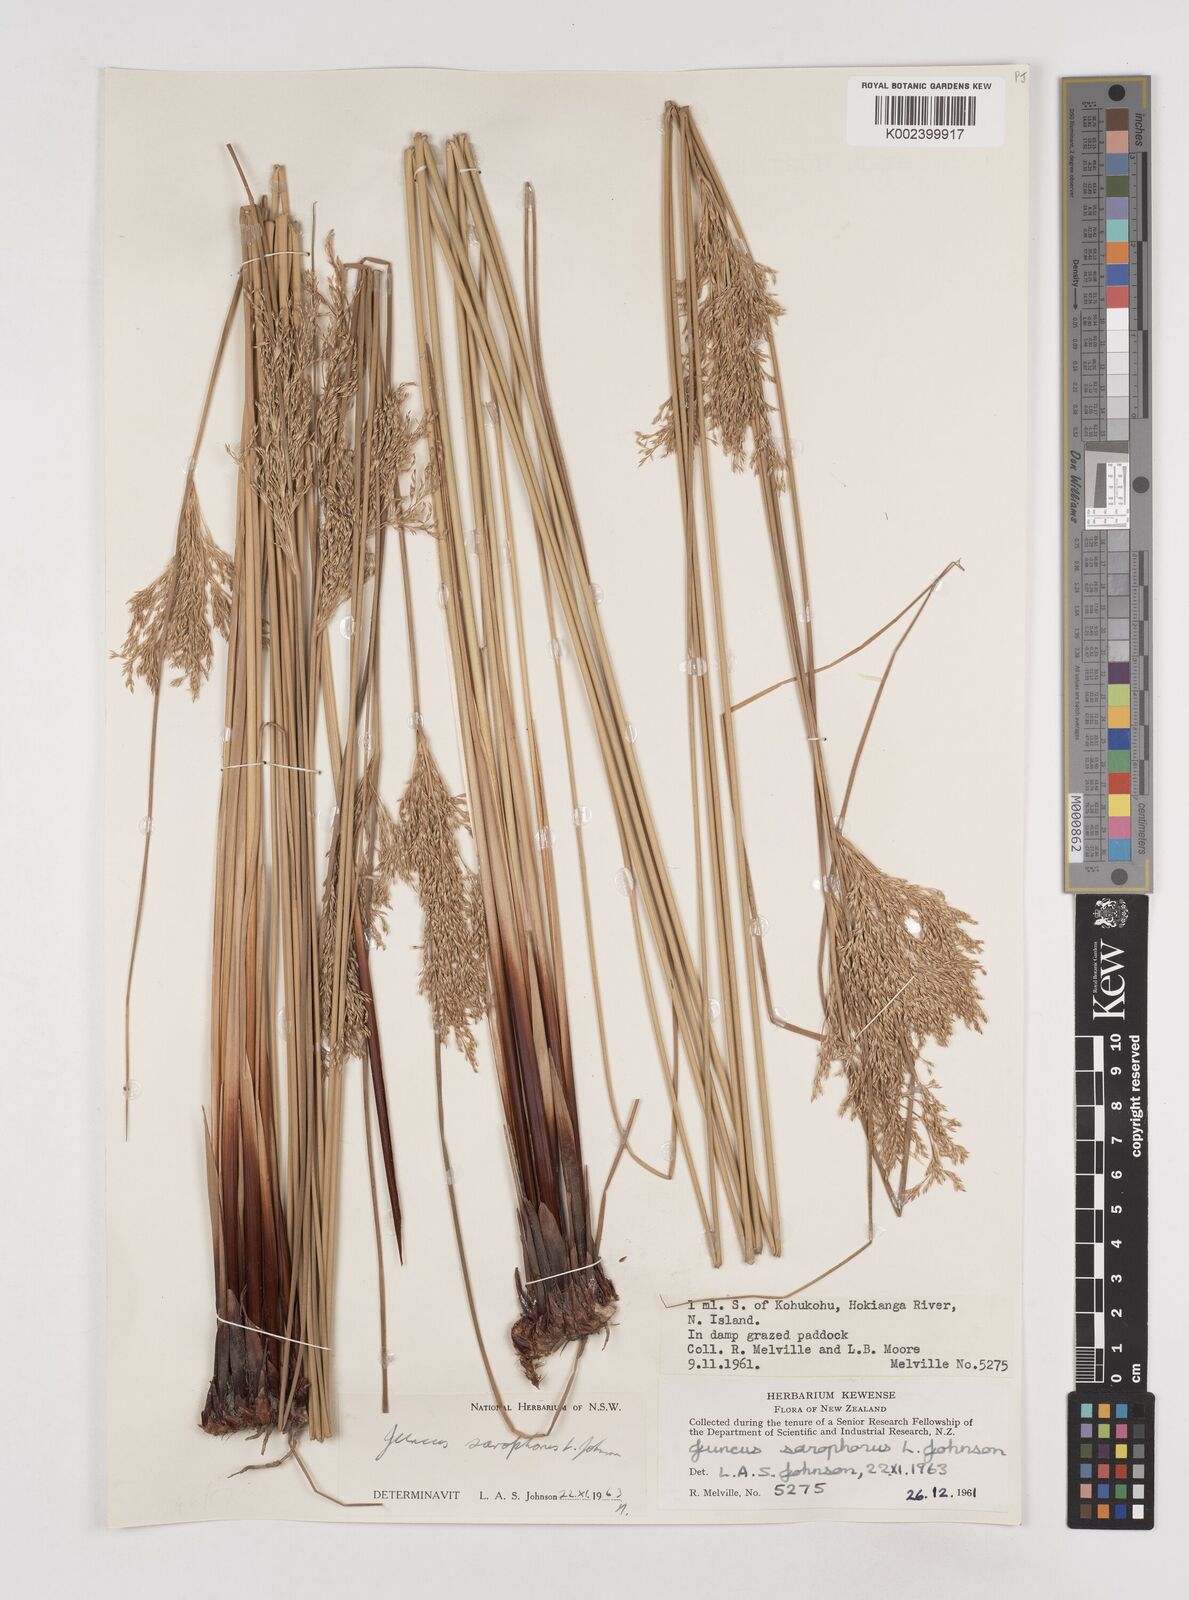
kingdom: Plantae
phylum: Tracheophyta
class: Liliopsida
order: Poales
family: Juncaceae
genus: Juncus
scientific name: Juncus sarophorus
